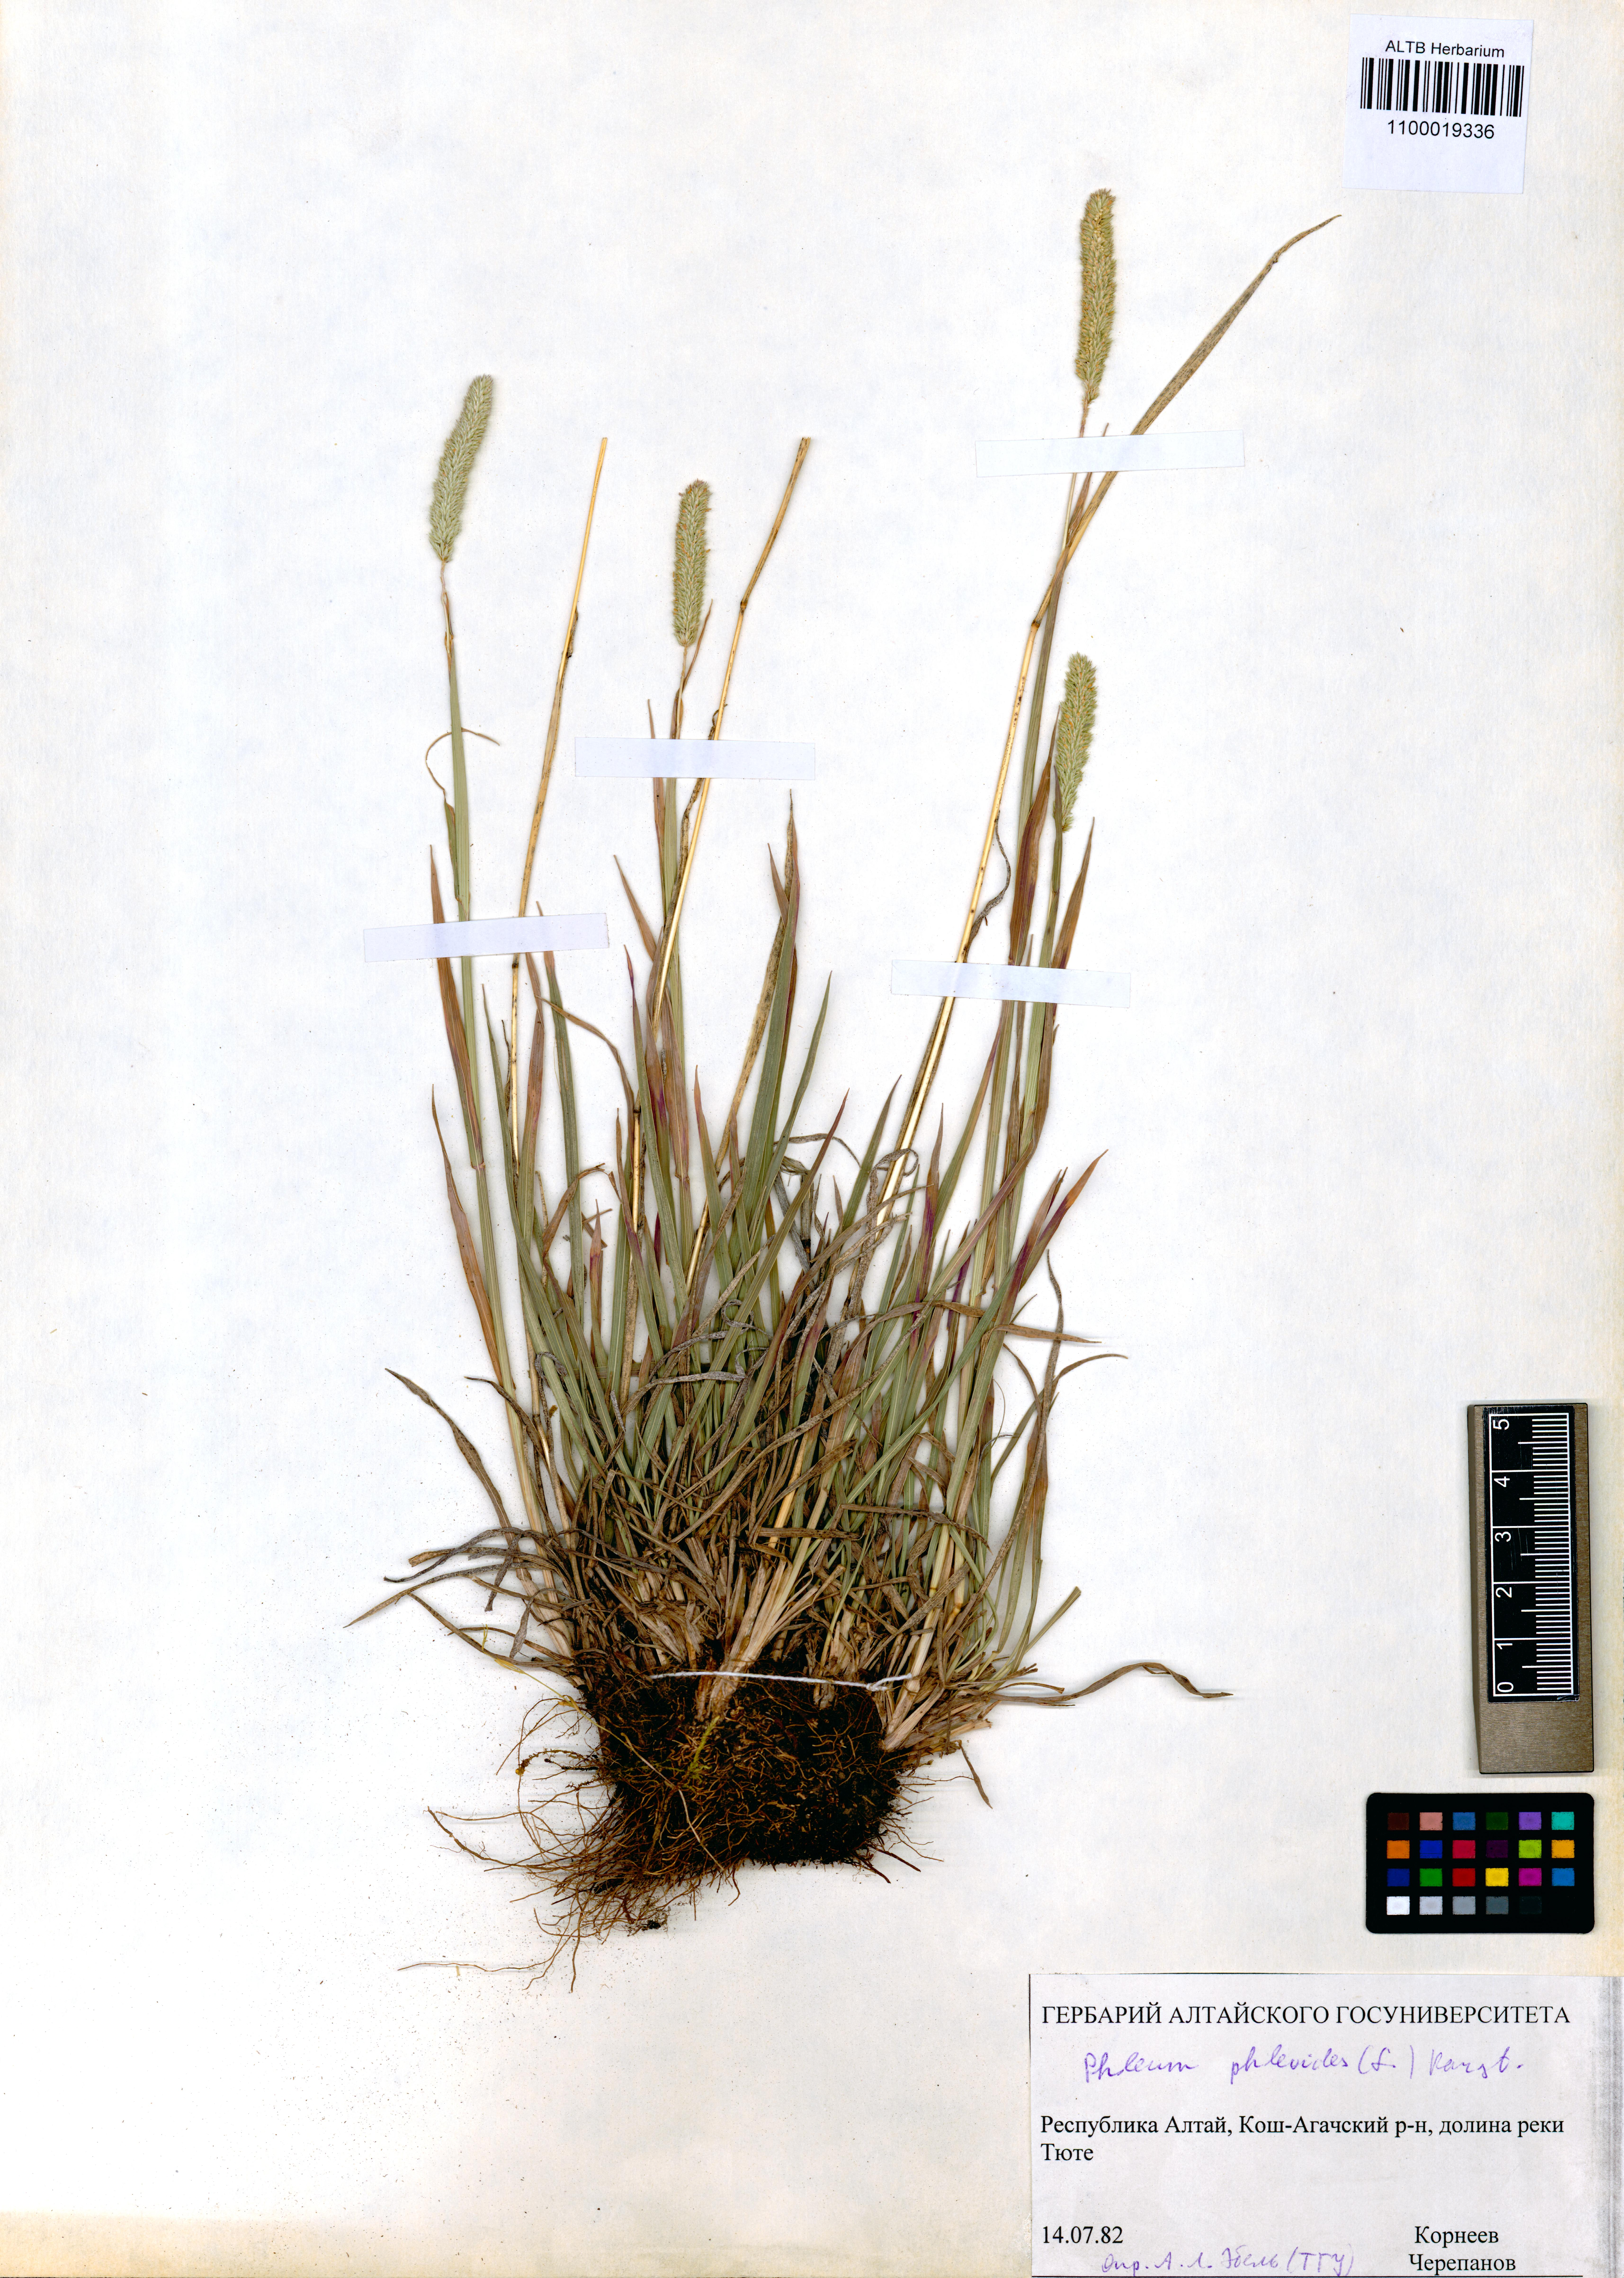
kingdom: Plantae
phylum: Tracheophyta
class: Liliopsida
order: Poales
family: Poaceae
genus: Phleum
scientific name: Phleum phleoides
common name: Purple-stem cat's-tail
